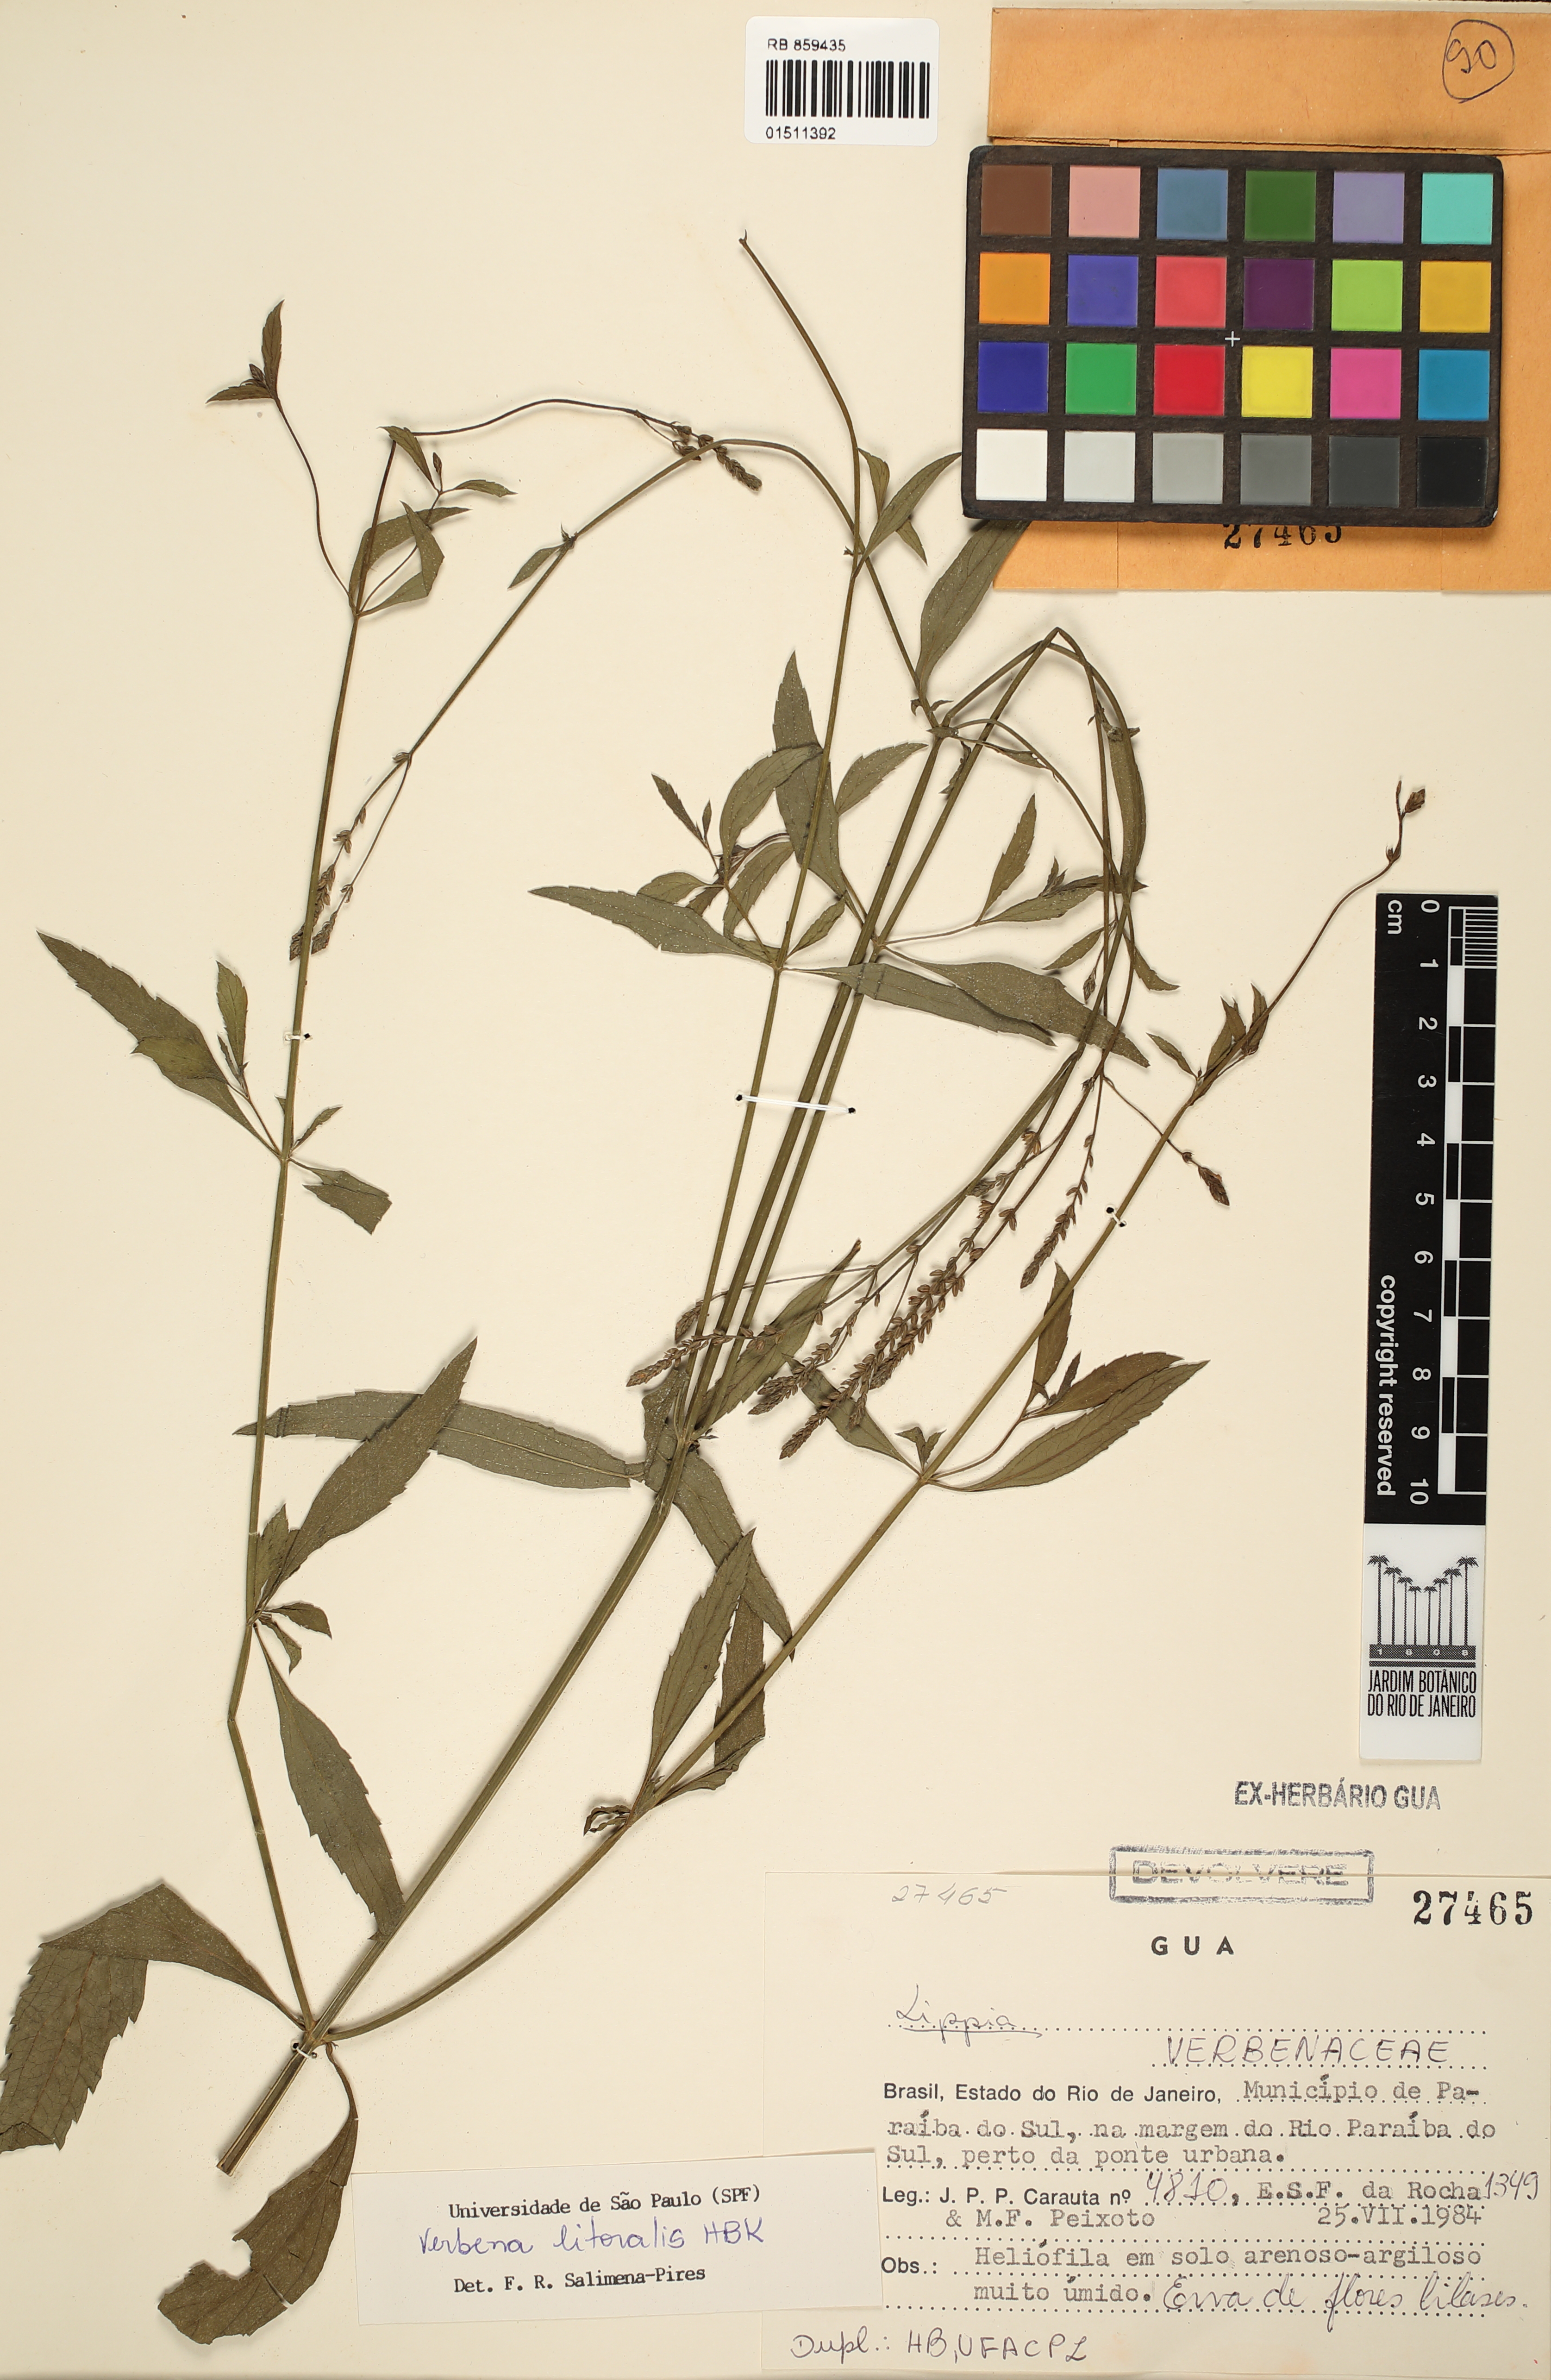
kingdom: Plantae
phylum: Tracheophyta
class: Magnoliopsida
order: Lamiales
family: Verbenaceae
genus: Verbena
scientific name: Verbena litoralis
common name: Seashore vervain
